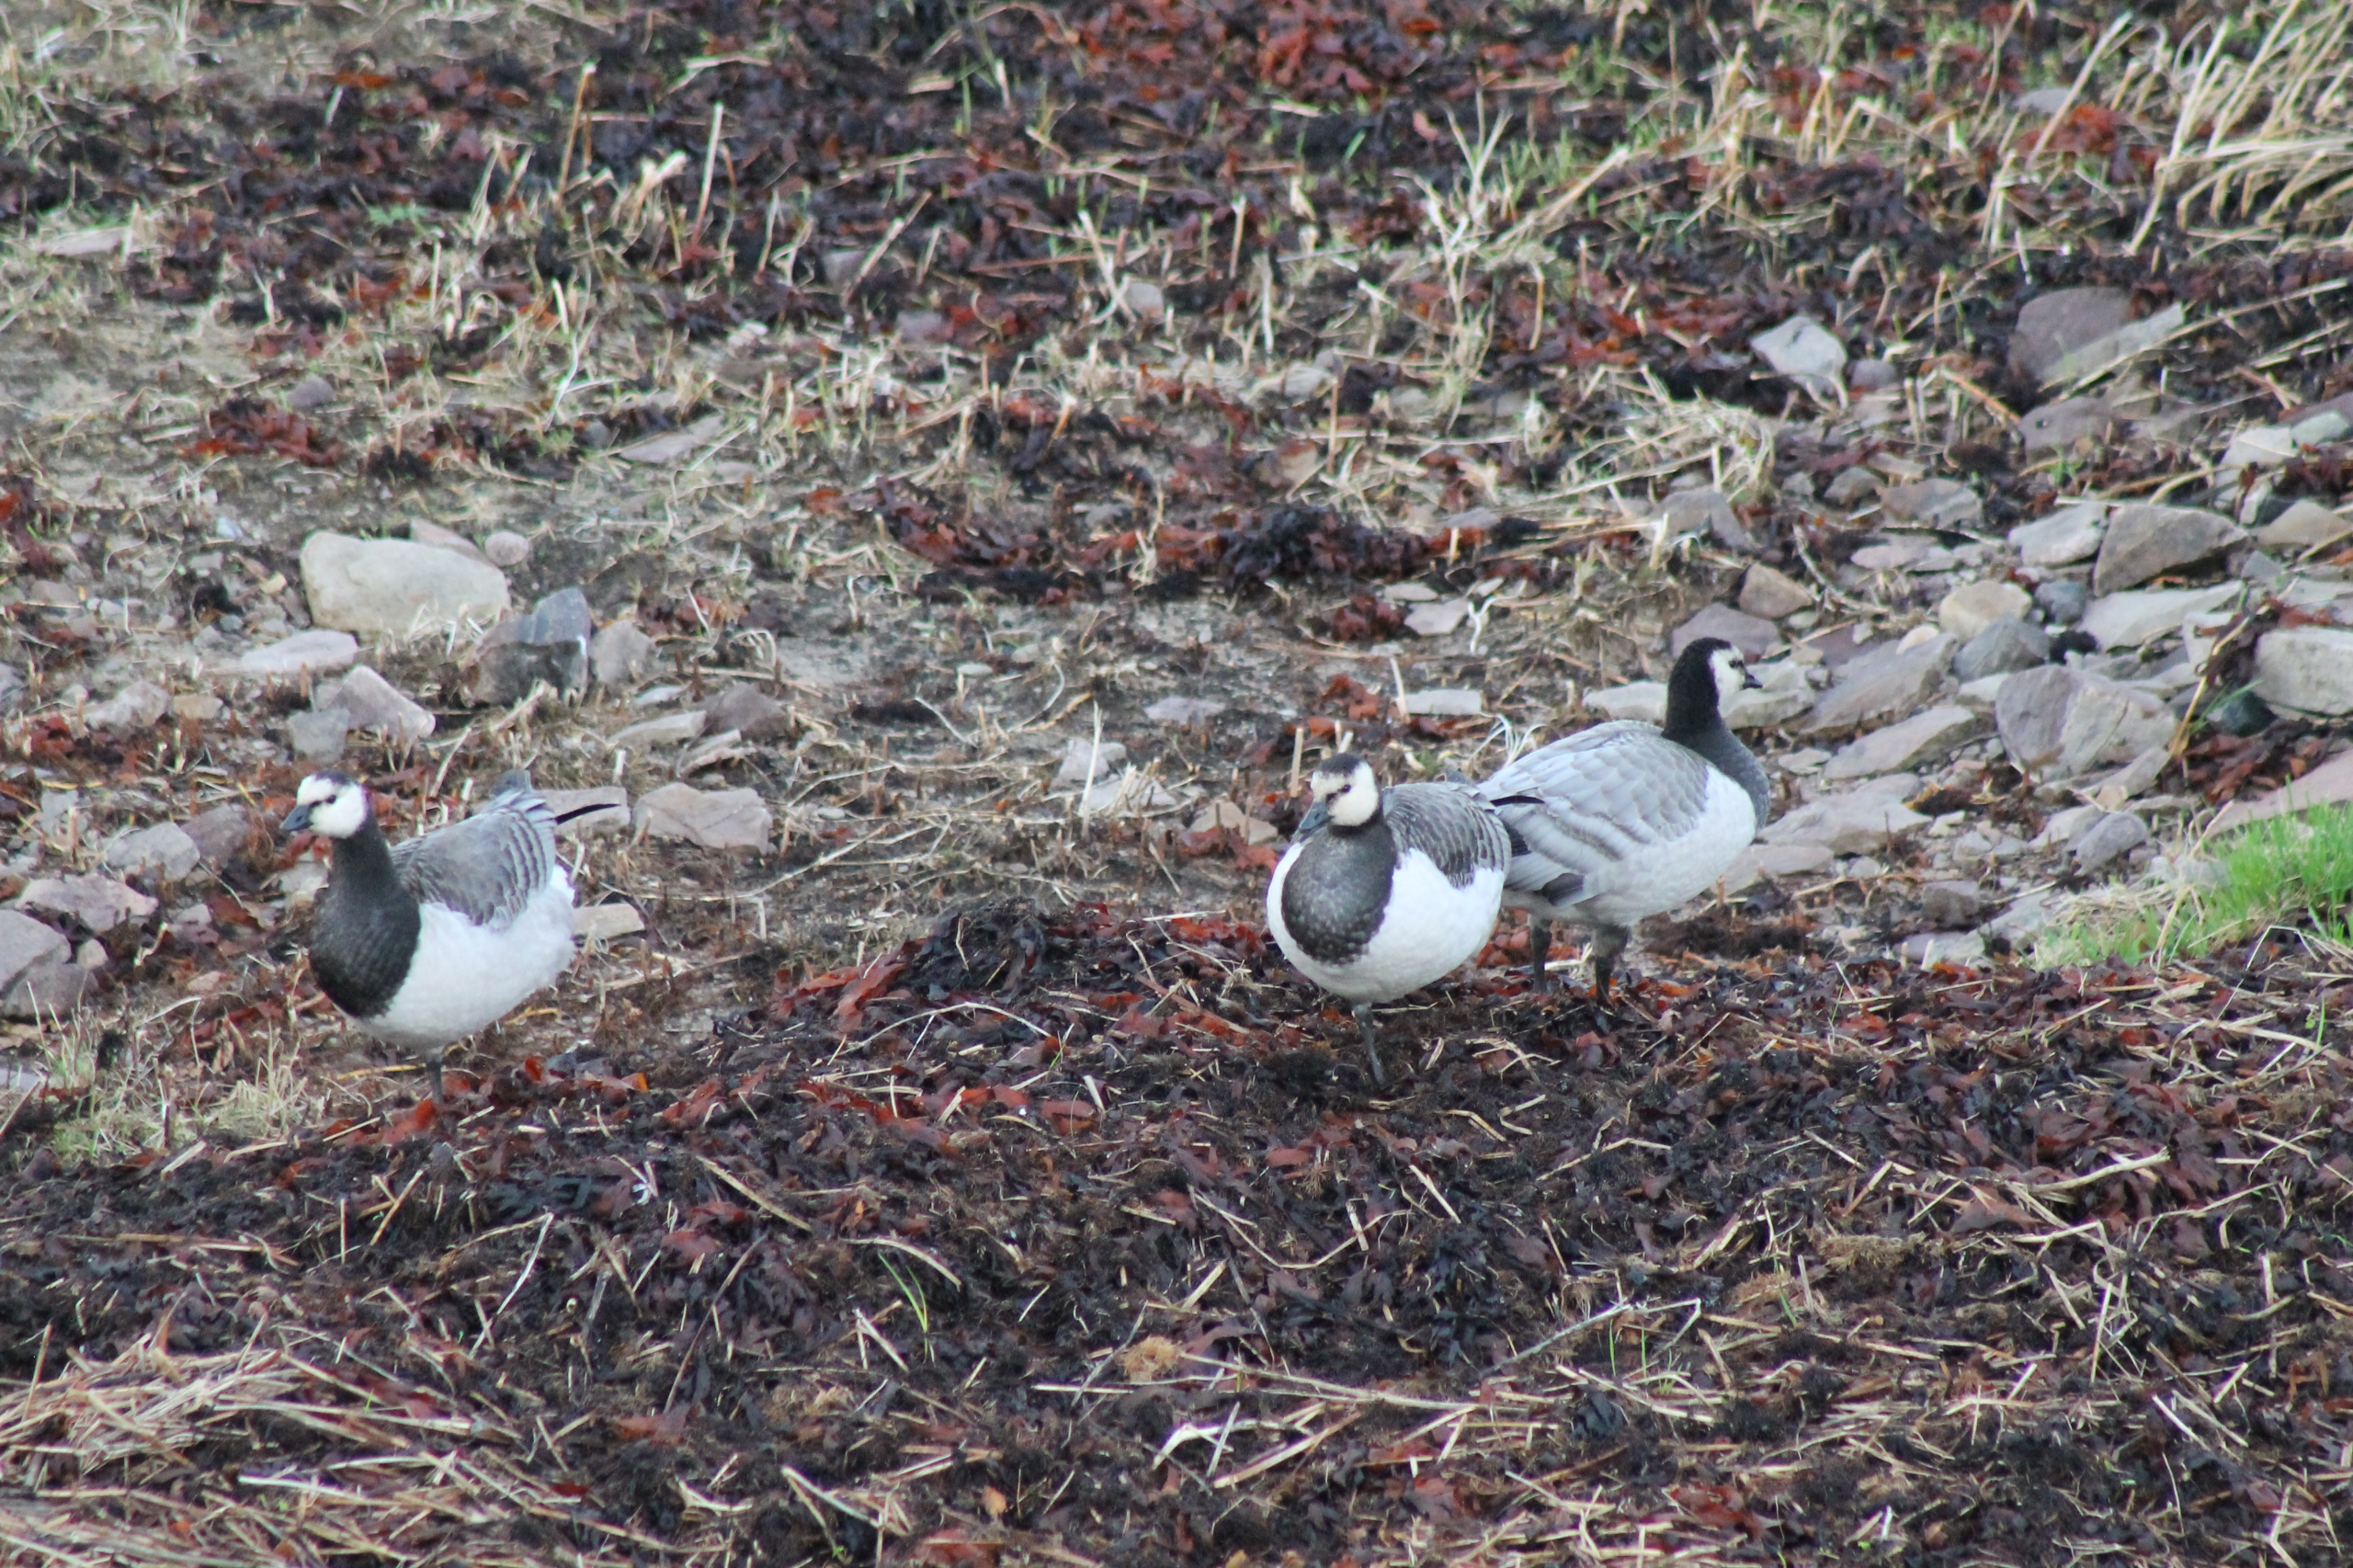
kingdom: Animalia
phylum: Chordata
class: Aves
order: Anseriformes
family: Anatidae
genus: Branta
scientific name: Branta leucopsis
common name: Bramgås
